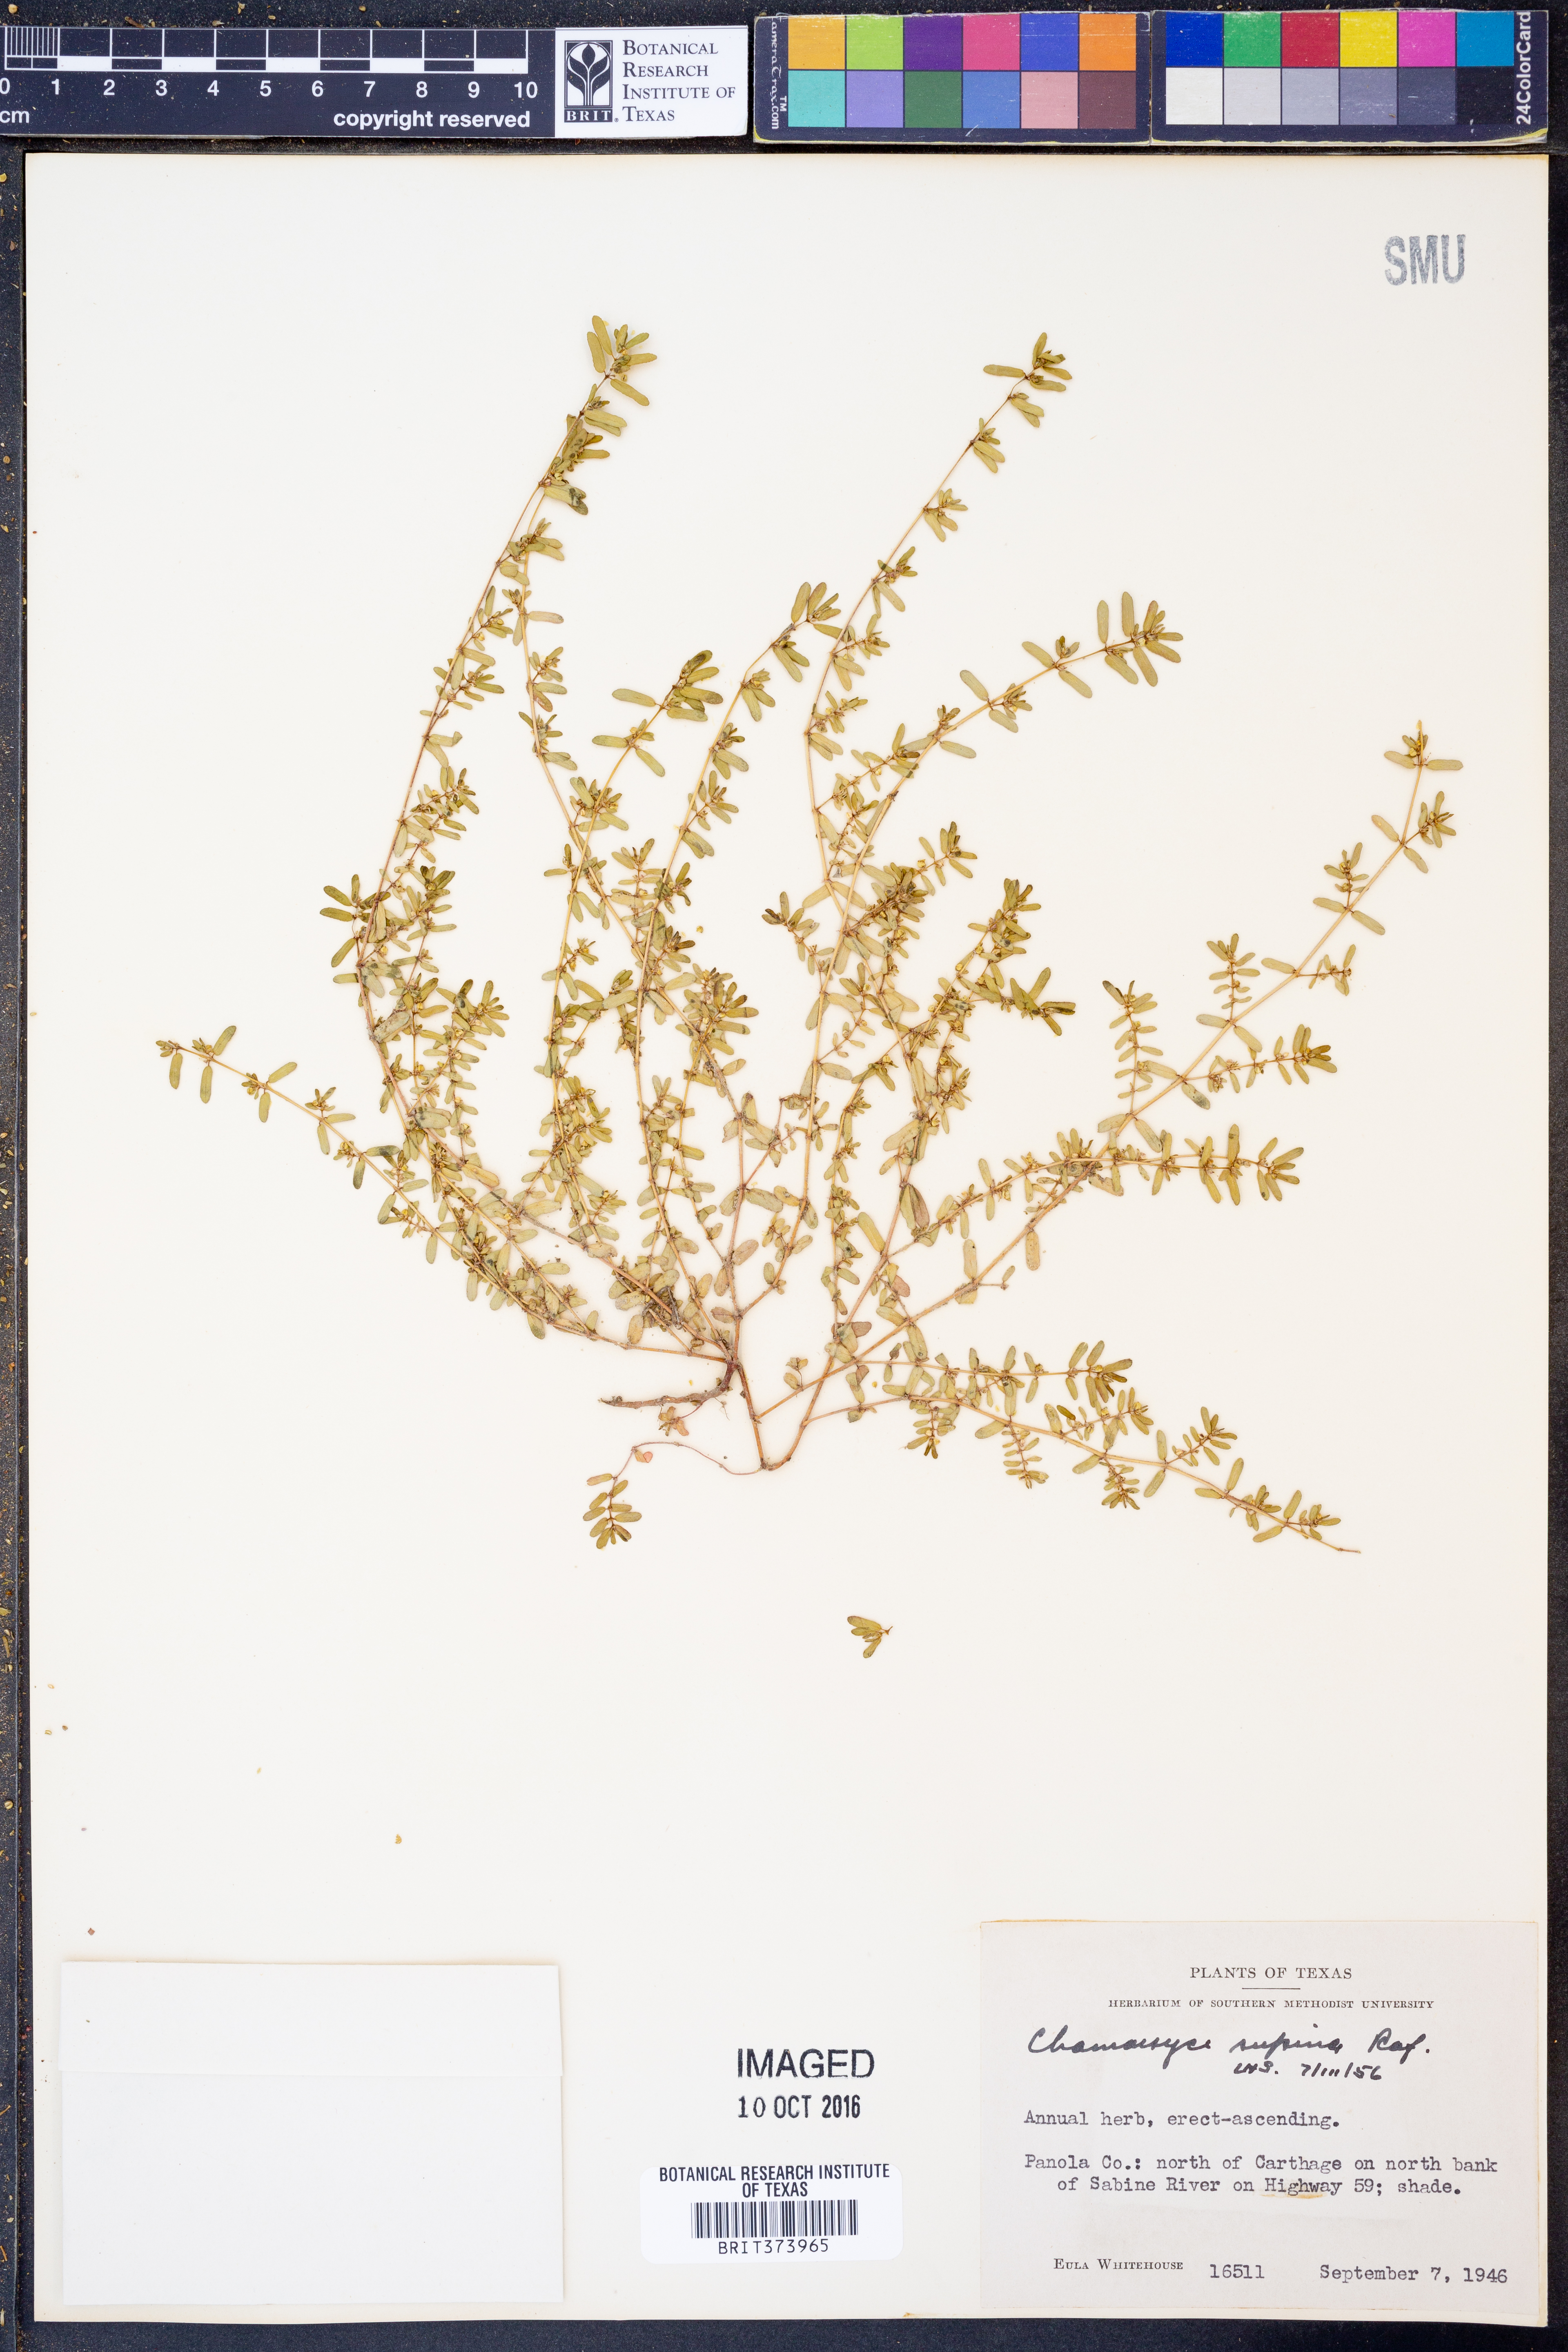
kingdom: Plantae
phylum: Tracheophyta
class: Magnoliopsida
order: Malpighiales
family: Euphorbiaceae
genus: Euphorbia
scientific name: Euphorbia maculata
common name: Spotted spurge
